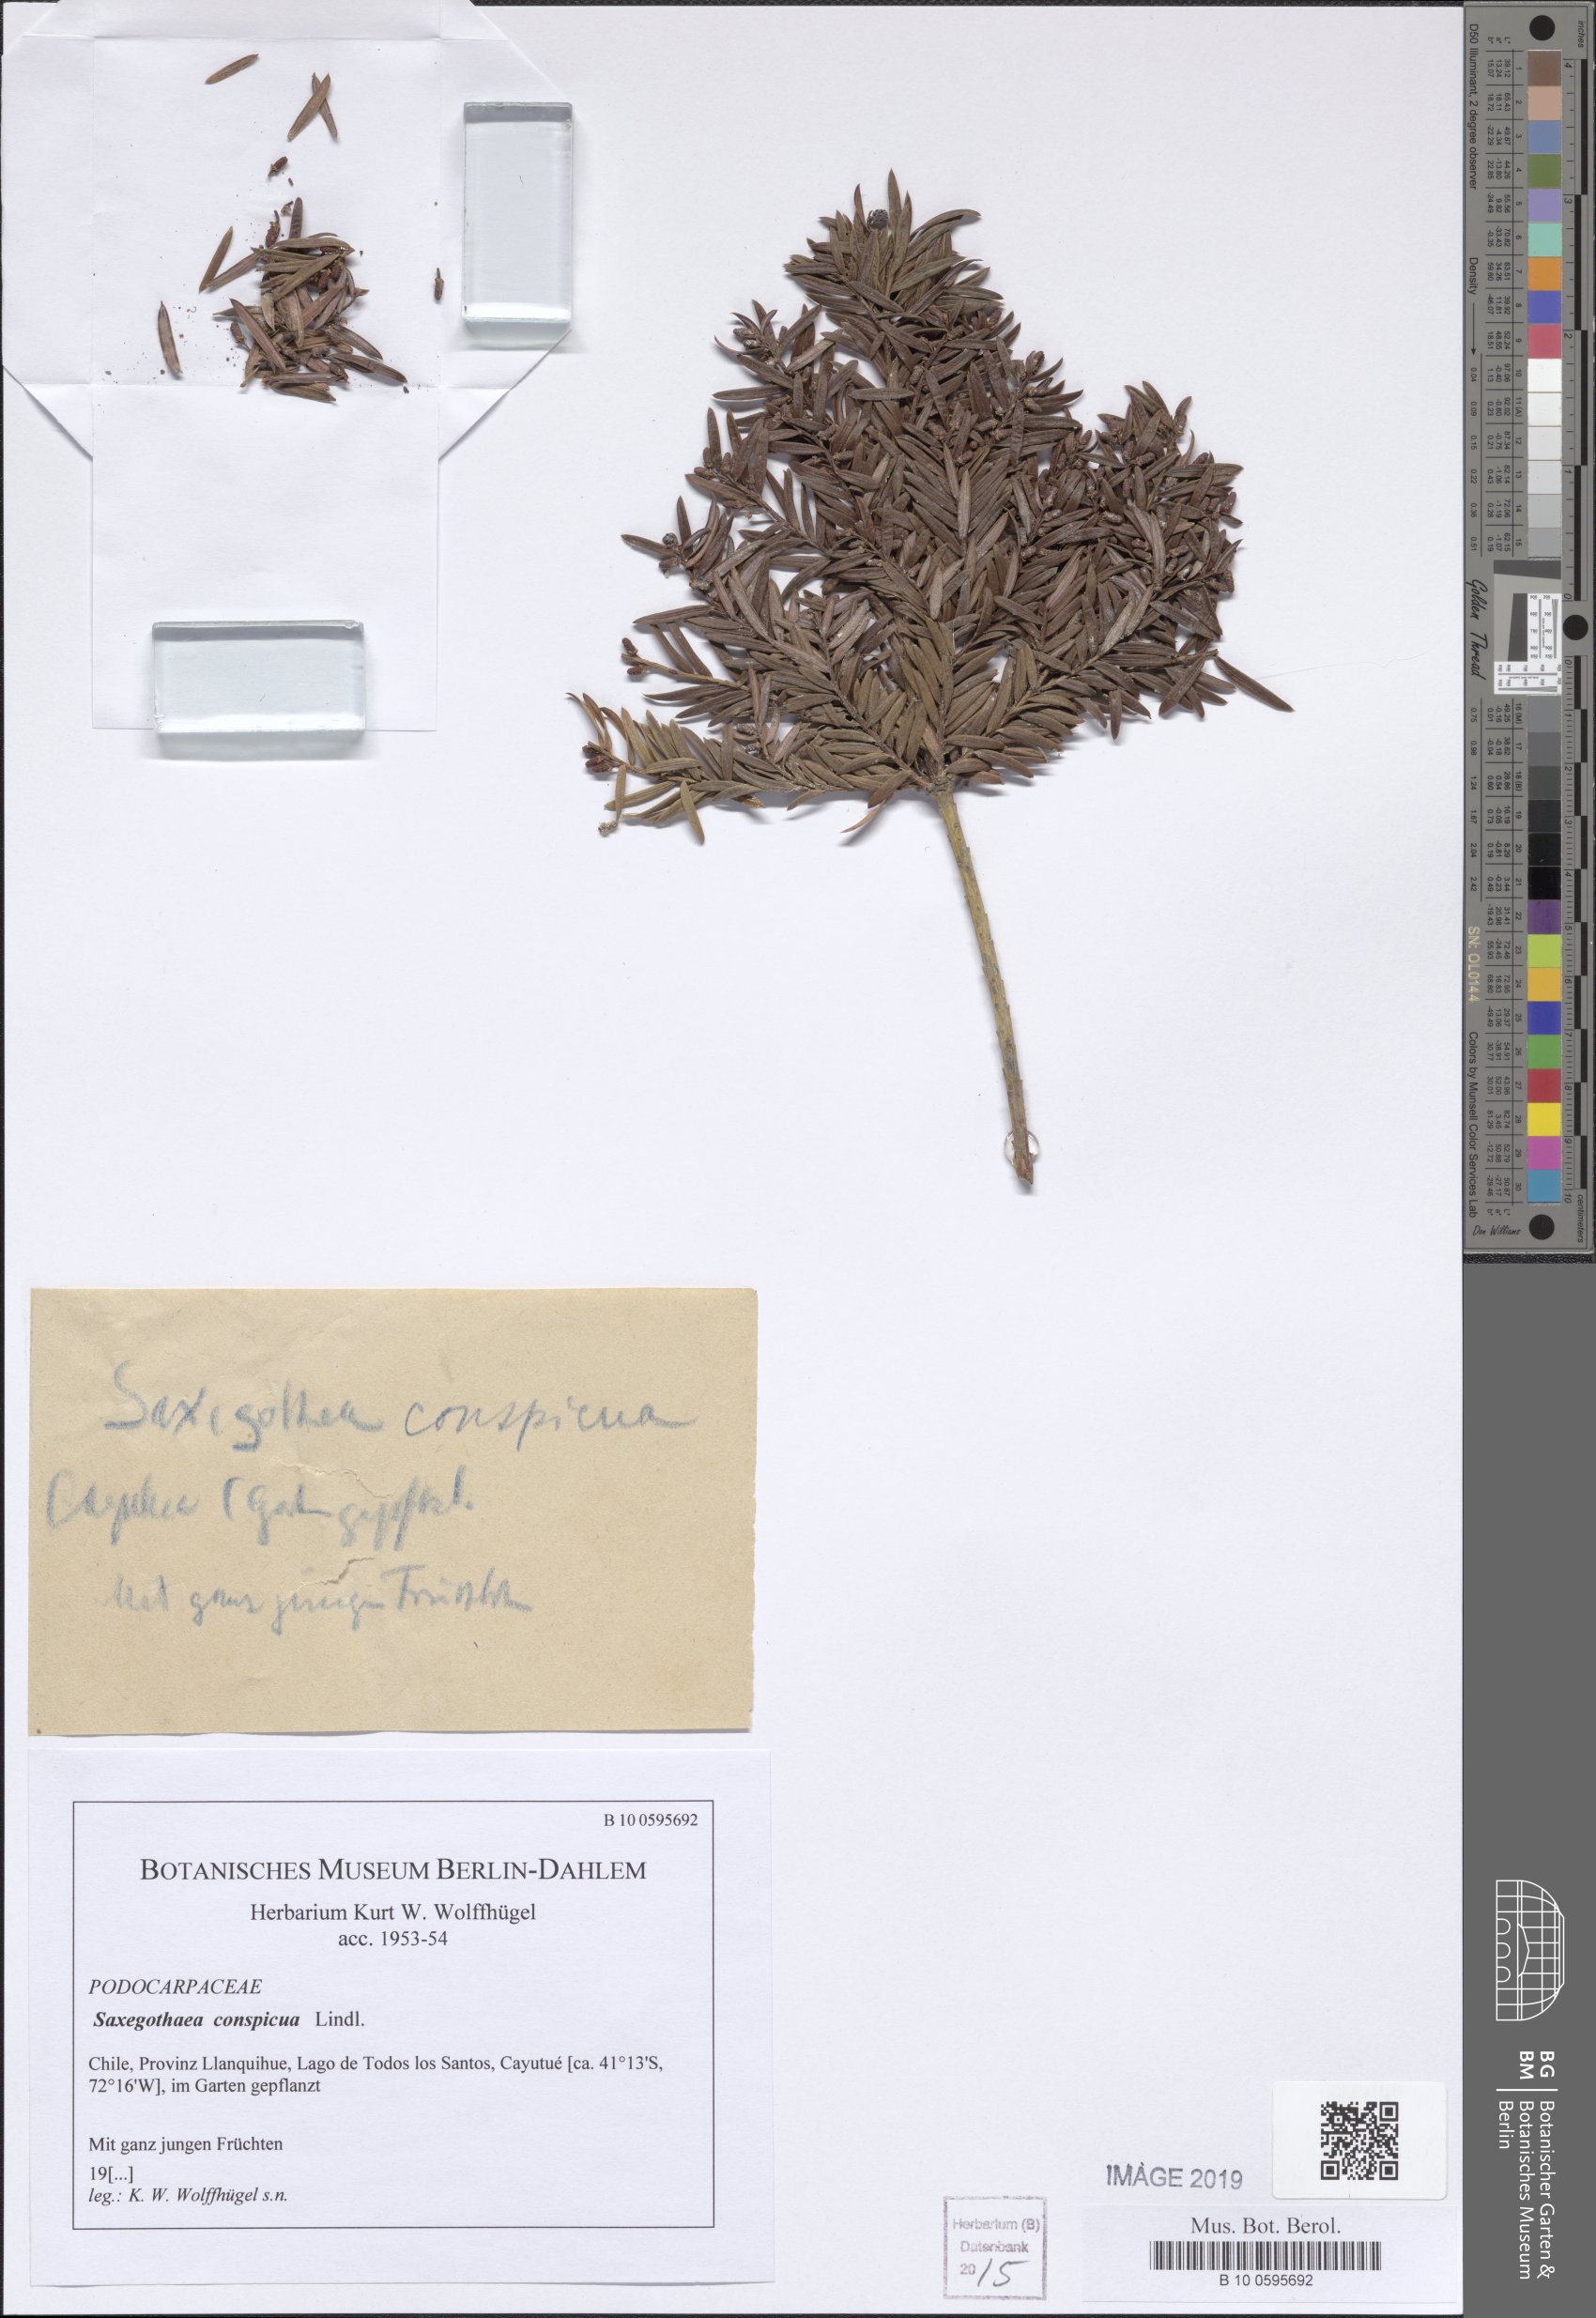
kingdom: Plantae
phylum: Tracheophyta
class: Pinopsida
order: Pinales
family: Podocarpaceae
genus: Saxegothaea
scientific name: Saxegothaea conspicua
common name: Prince albert's yew
